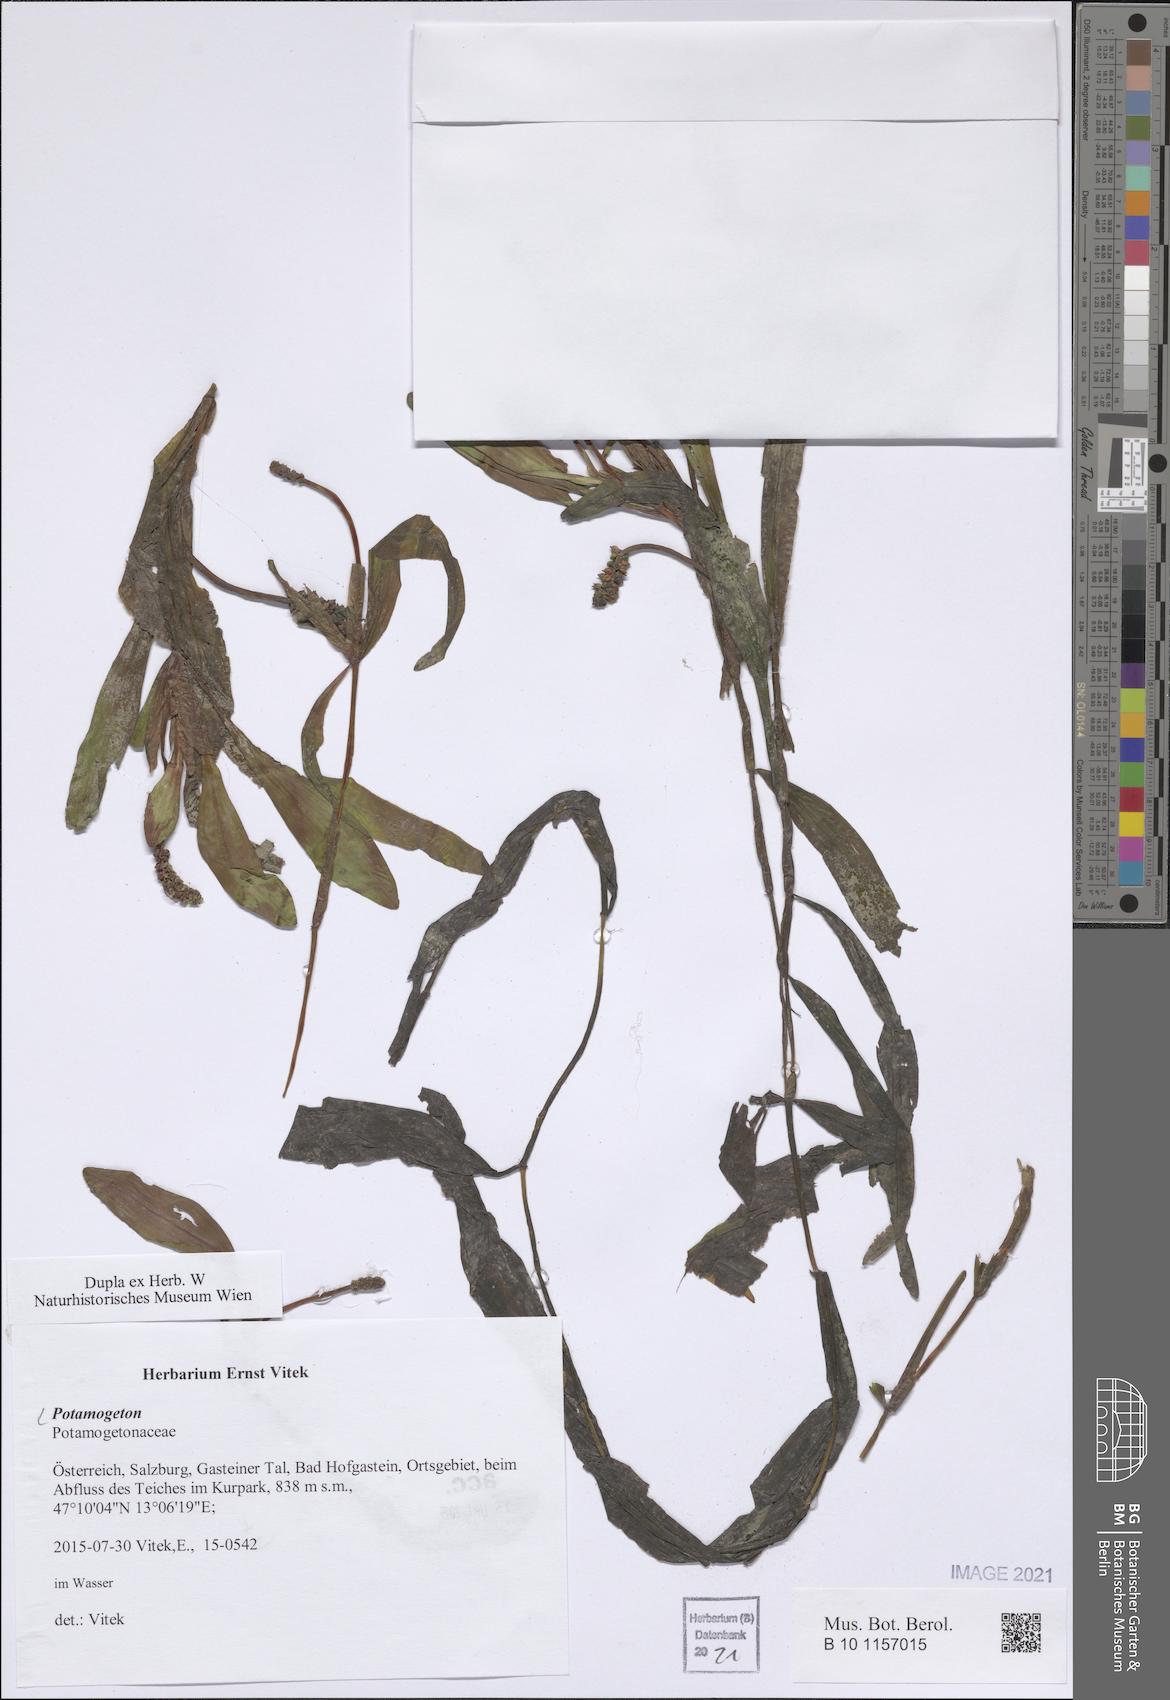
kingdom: Plantae
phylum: Tracheophyta
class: Liliopsida
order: Alismatales
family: Potamogetonaceae
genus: Potamogeton
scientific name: Potamogeton
